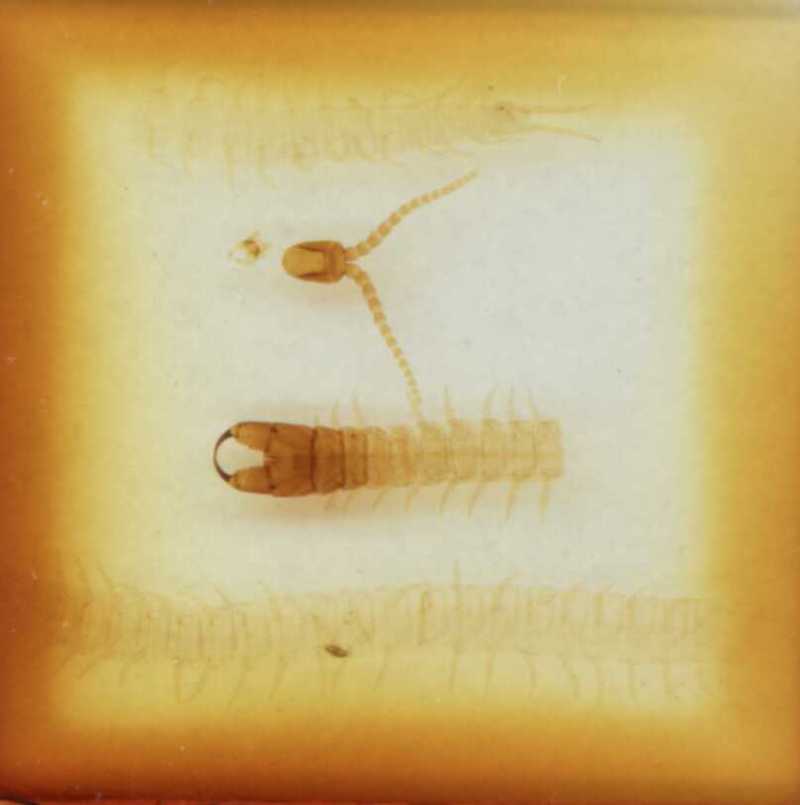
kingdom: Animalia
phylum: Arthropoda
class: Chilopoda
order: Geophilomorpha
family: Mecistocephalidae
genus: Tygarrup
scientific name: Tygarrup singaporiensis
